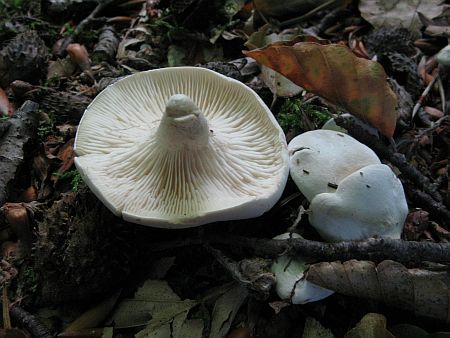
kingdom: Fungi
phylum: Basidiomycota
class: Agaricomycetes
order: Agaricales
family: Entolomataceae
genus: Clitopilus
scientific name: Clitopilus prunulus
